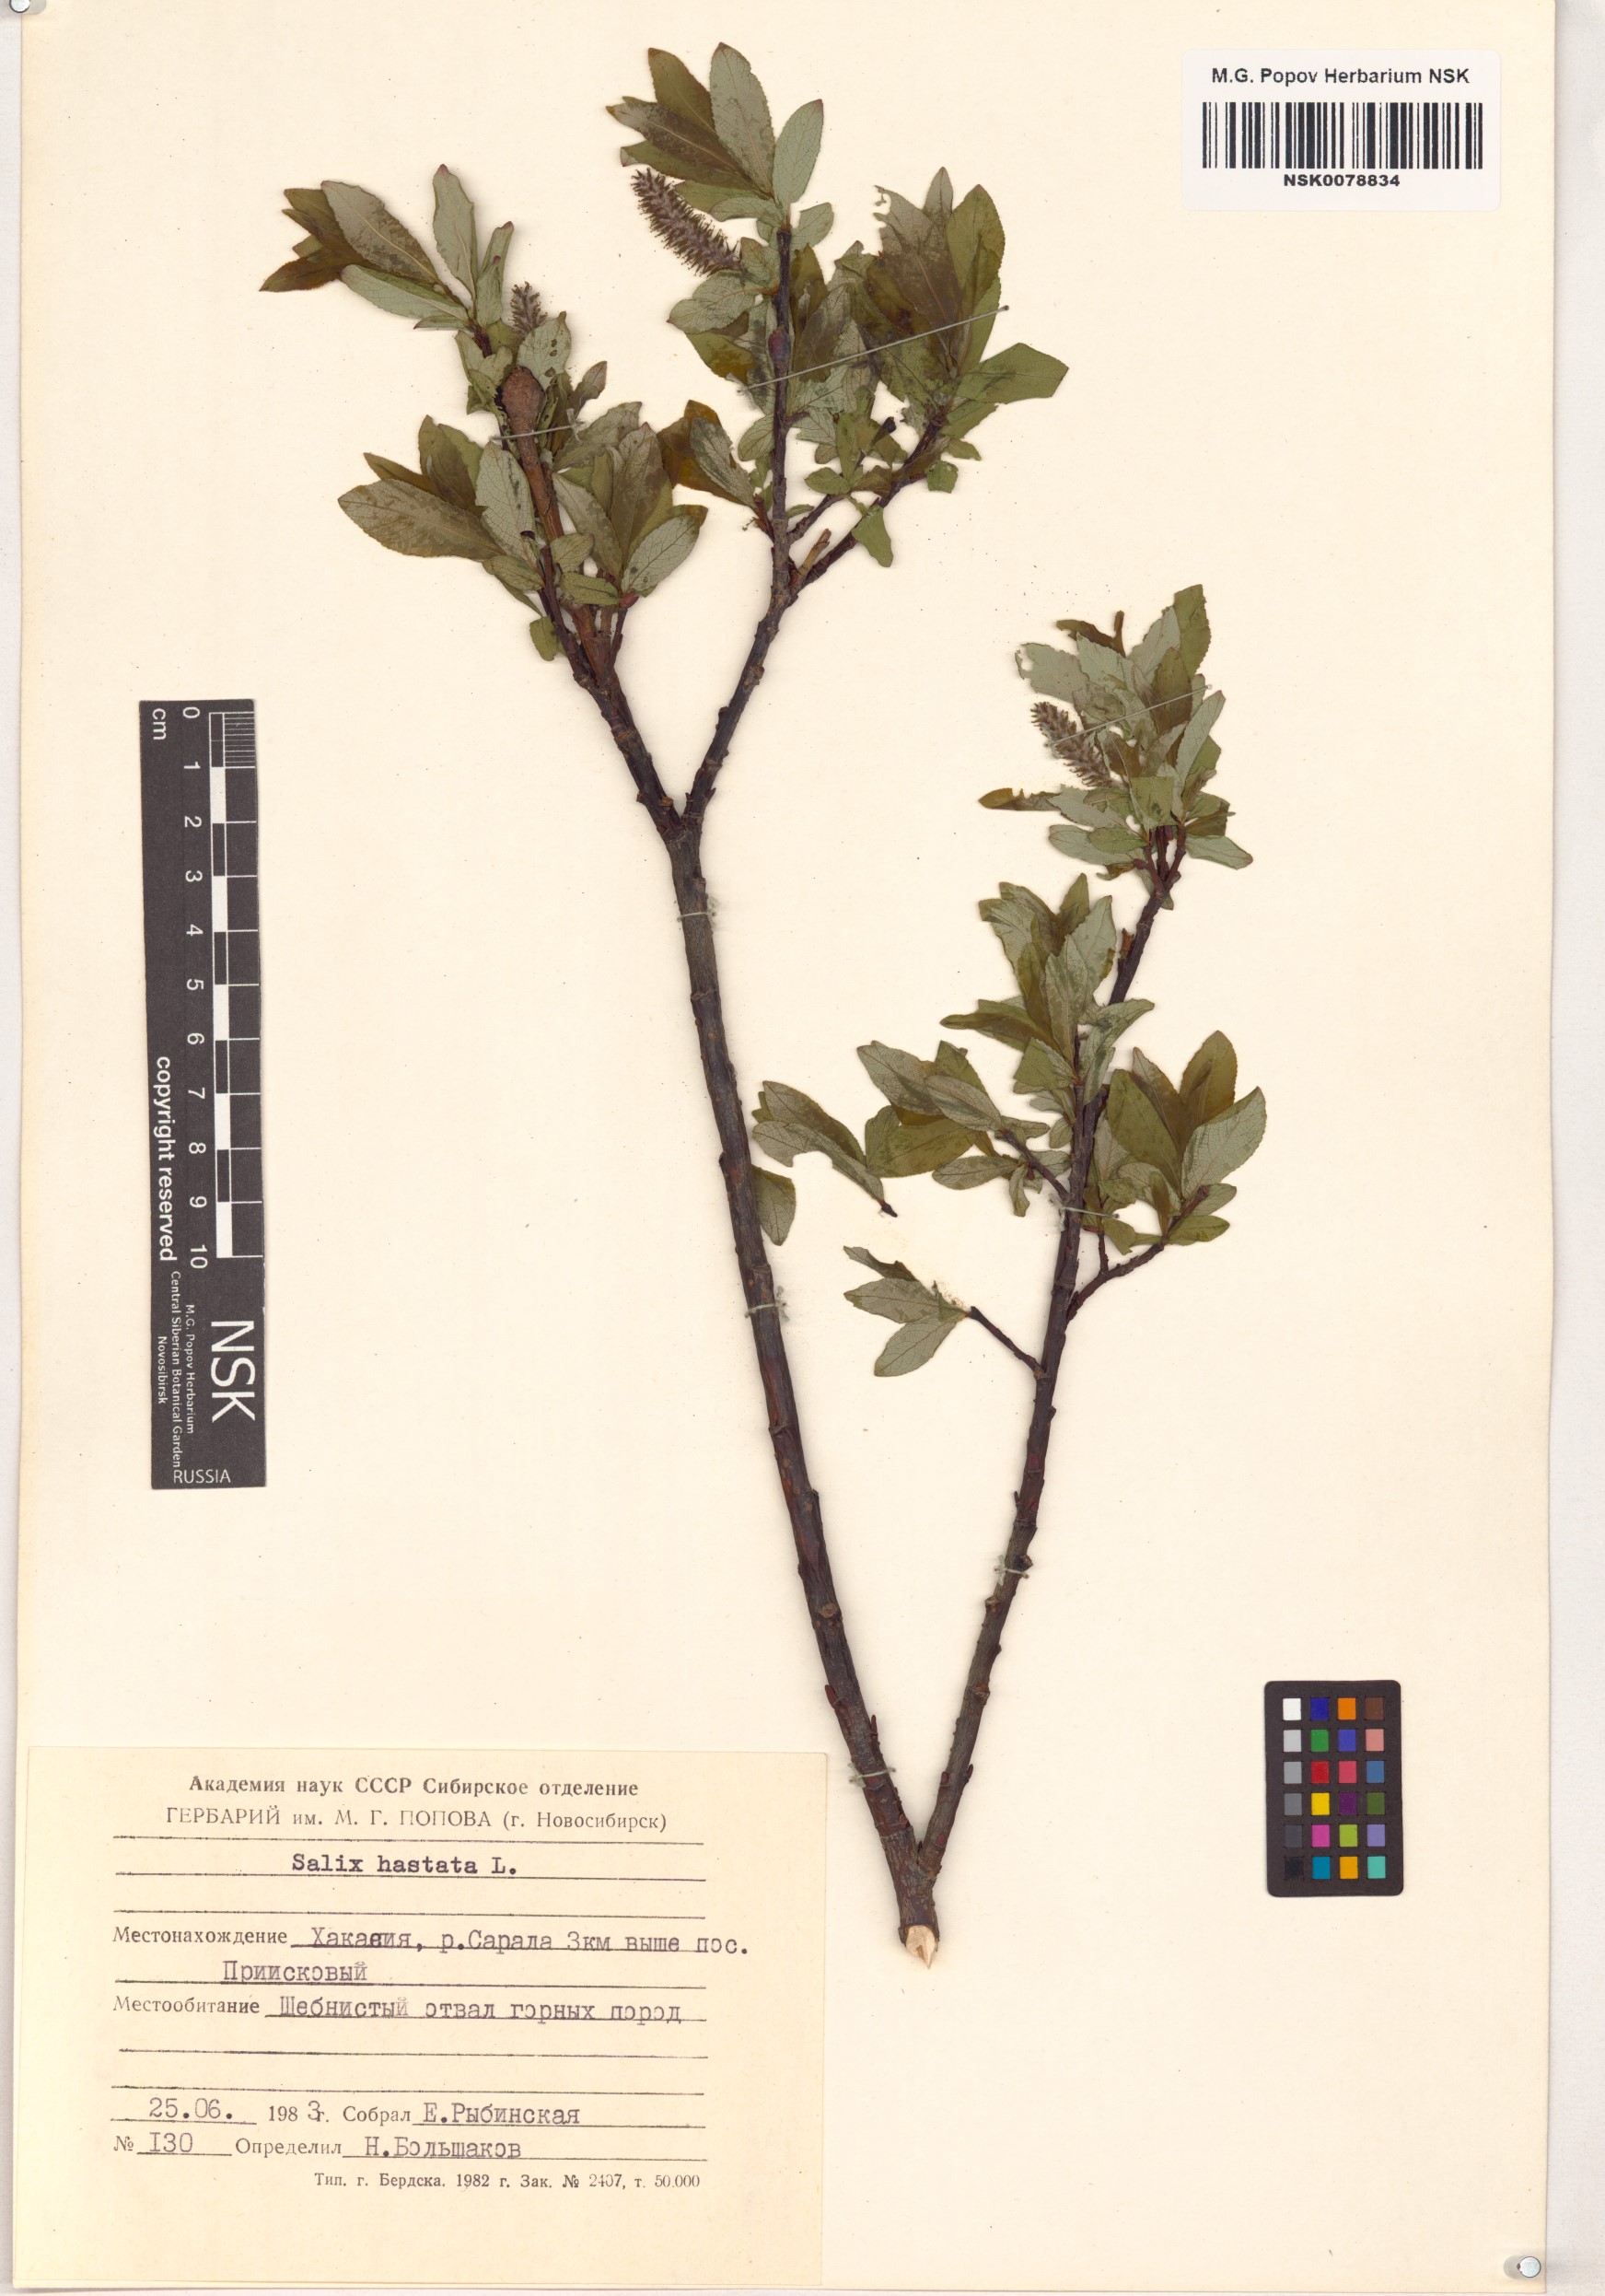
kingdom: Plantae
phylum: Tracheophyta
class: Magnoliopsida
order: Malpighiales
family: Salicaceae
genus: Salix
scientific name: Salix hastata
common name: Halberd willow
